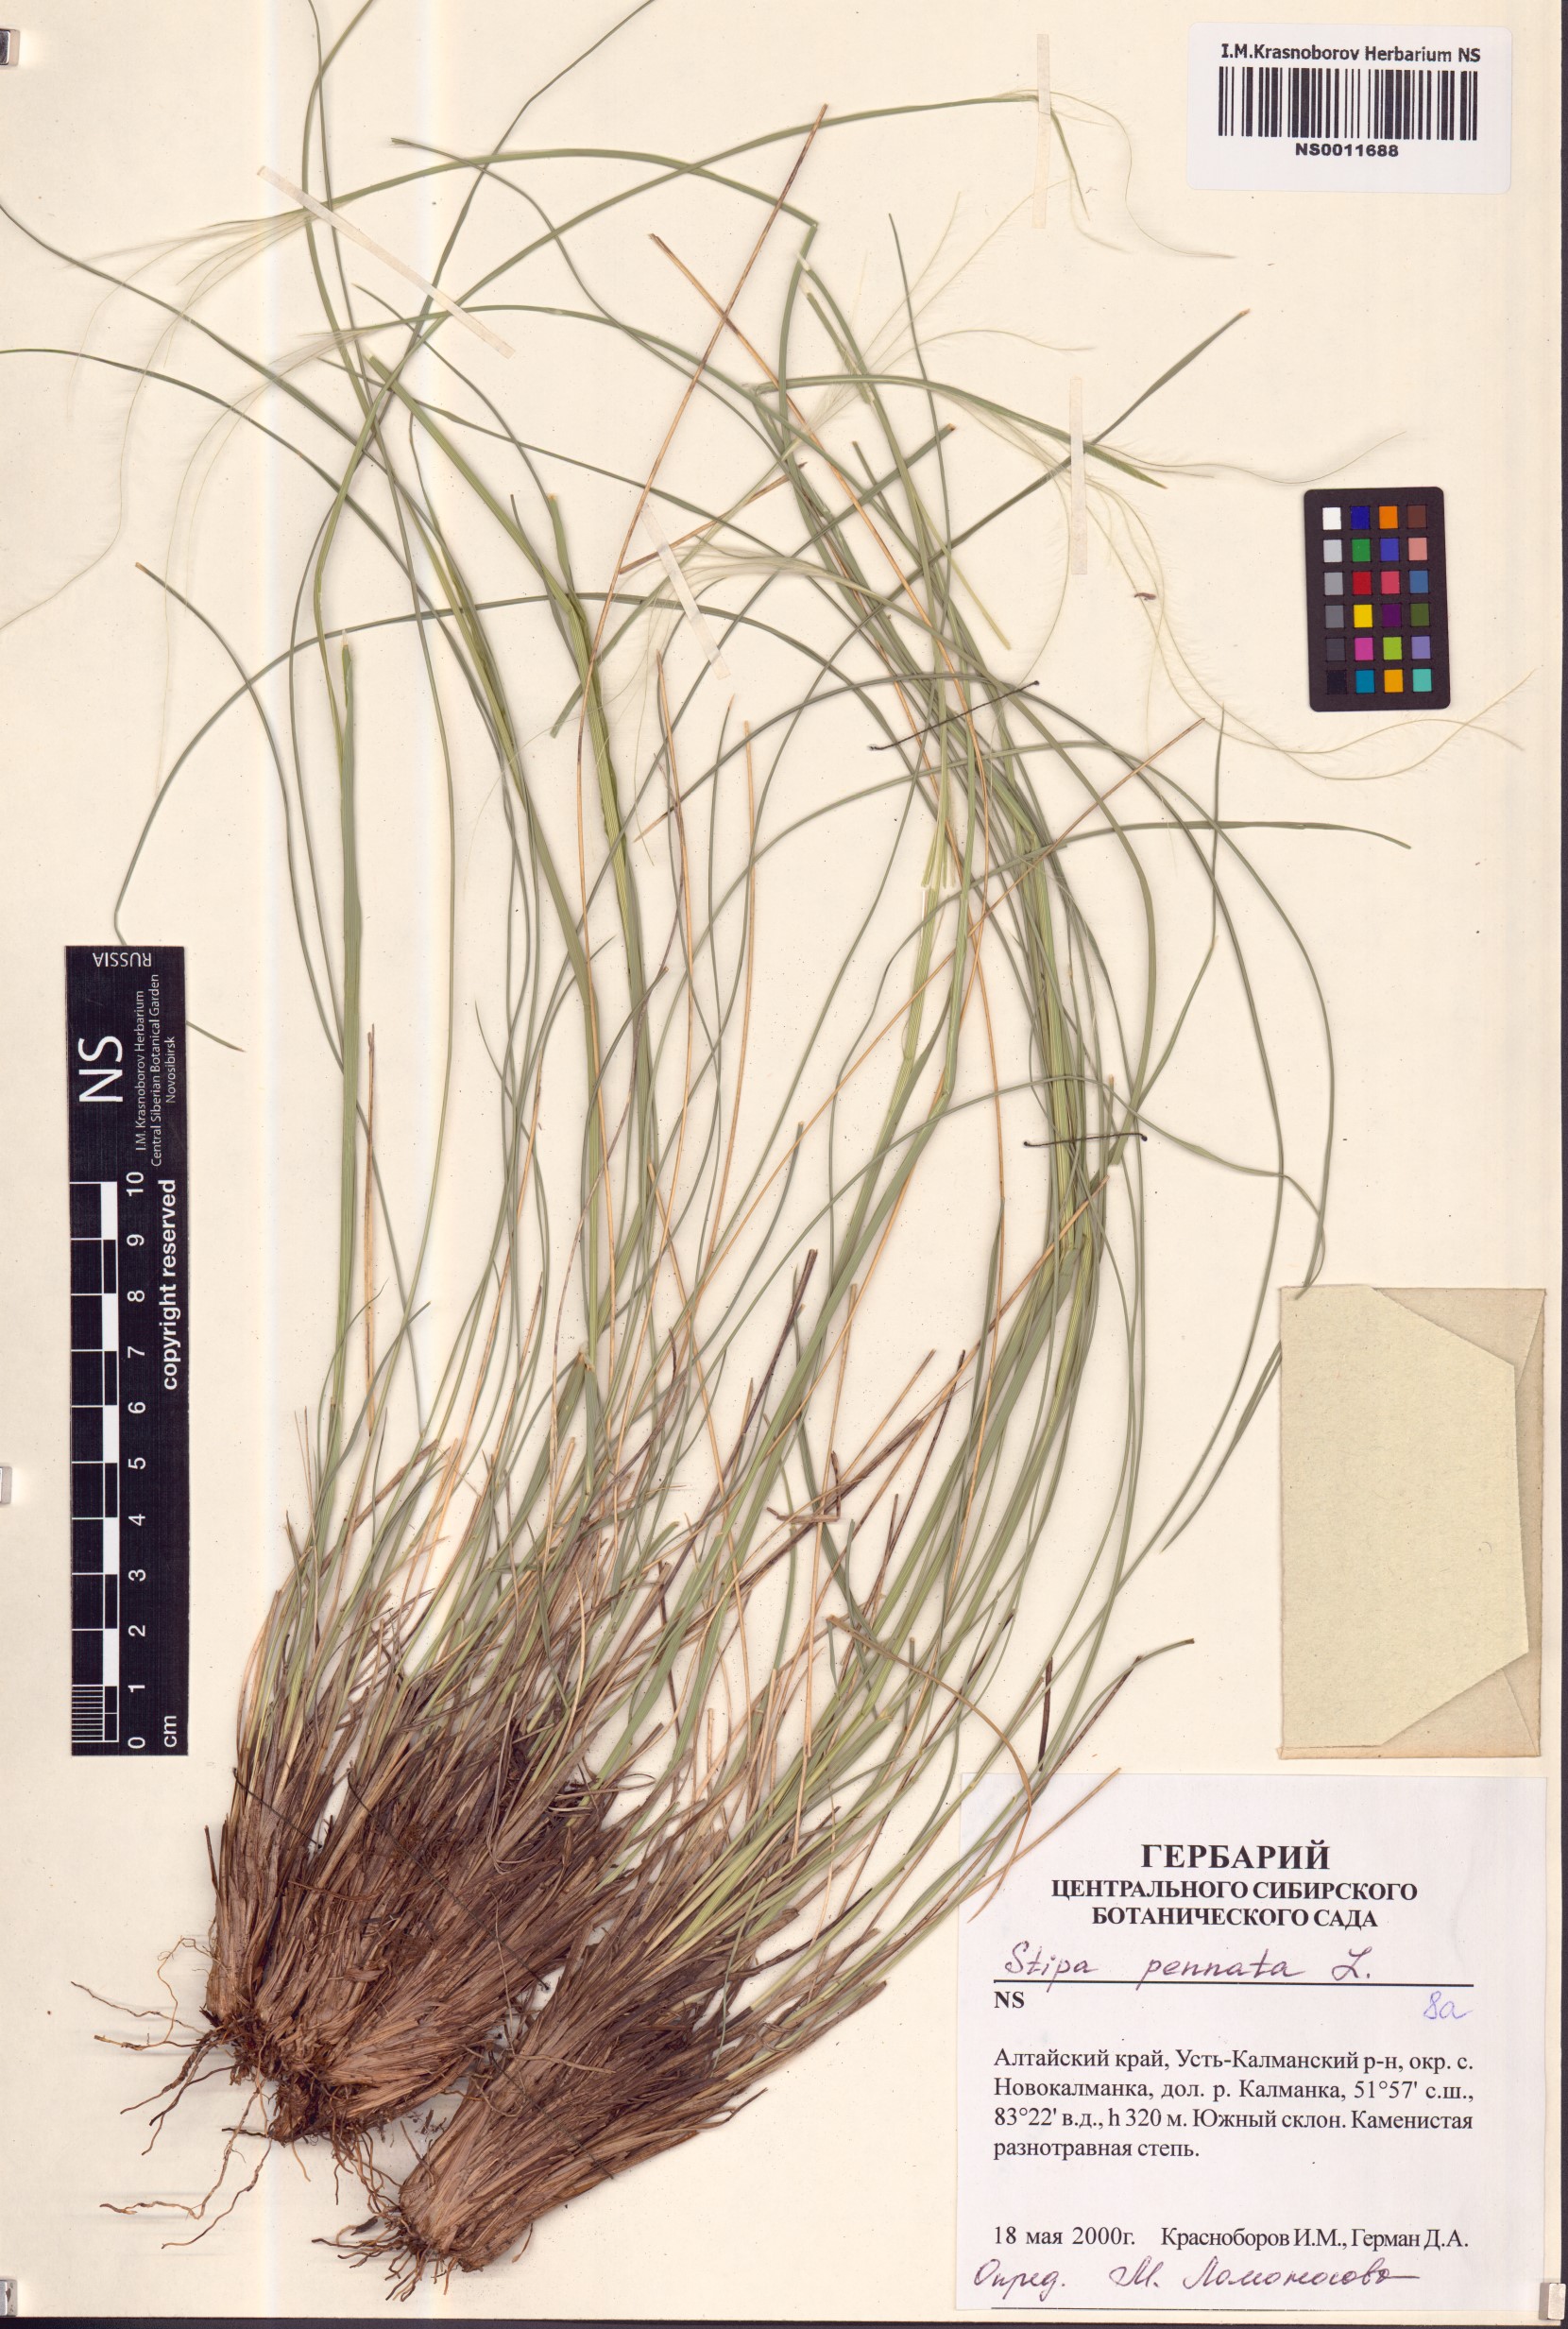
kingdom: Plantae
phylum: Tracheophyta
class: Liliopsida
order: Poales
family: Poaceae
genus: Stipa
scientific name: Stipa pennata
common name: European feather grass
